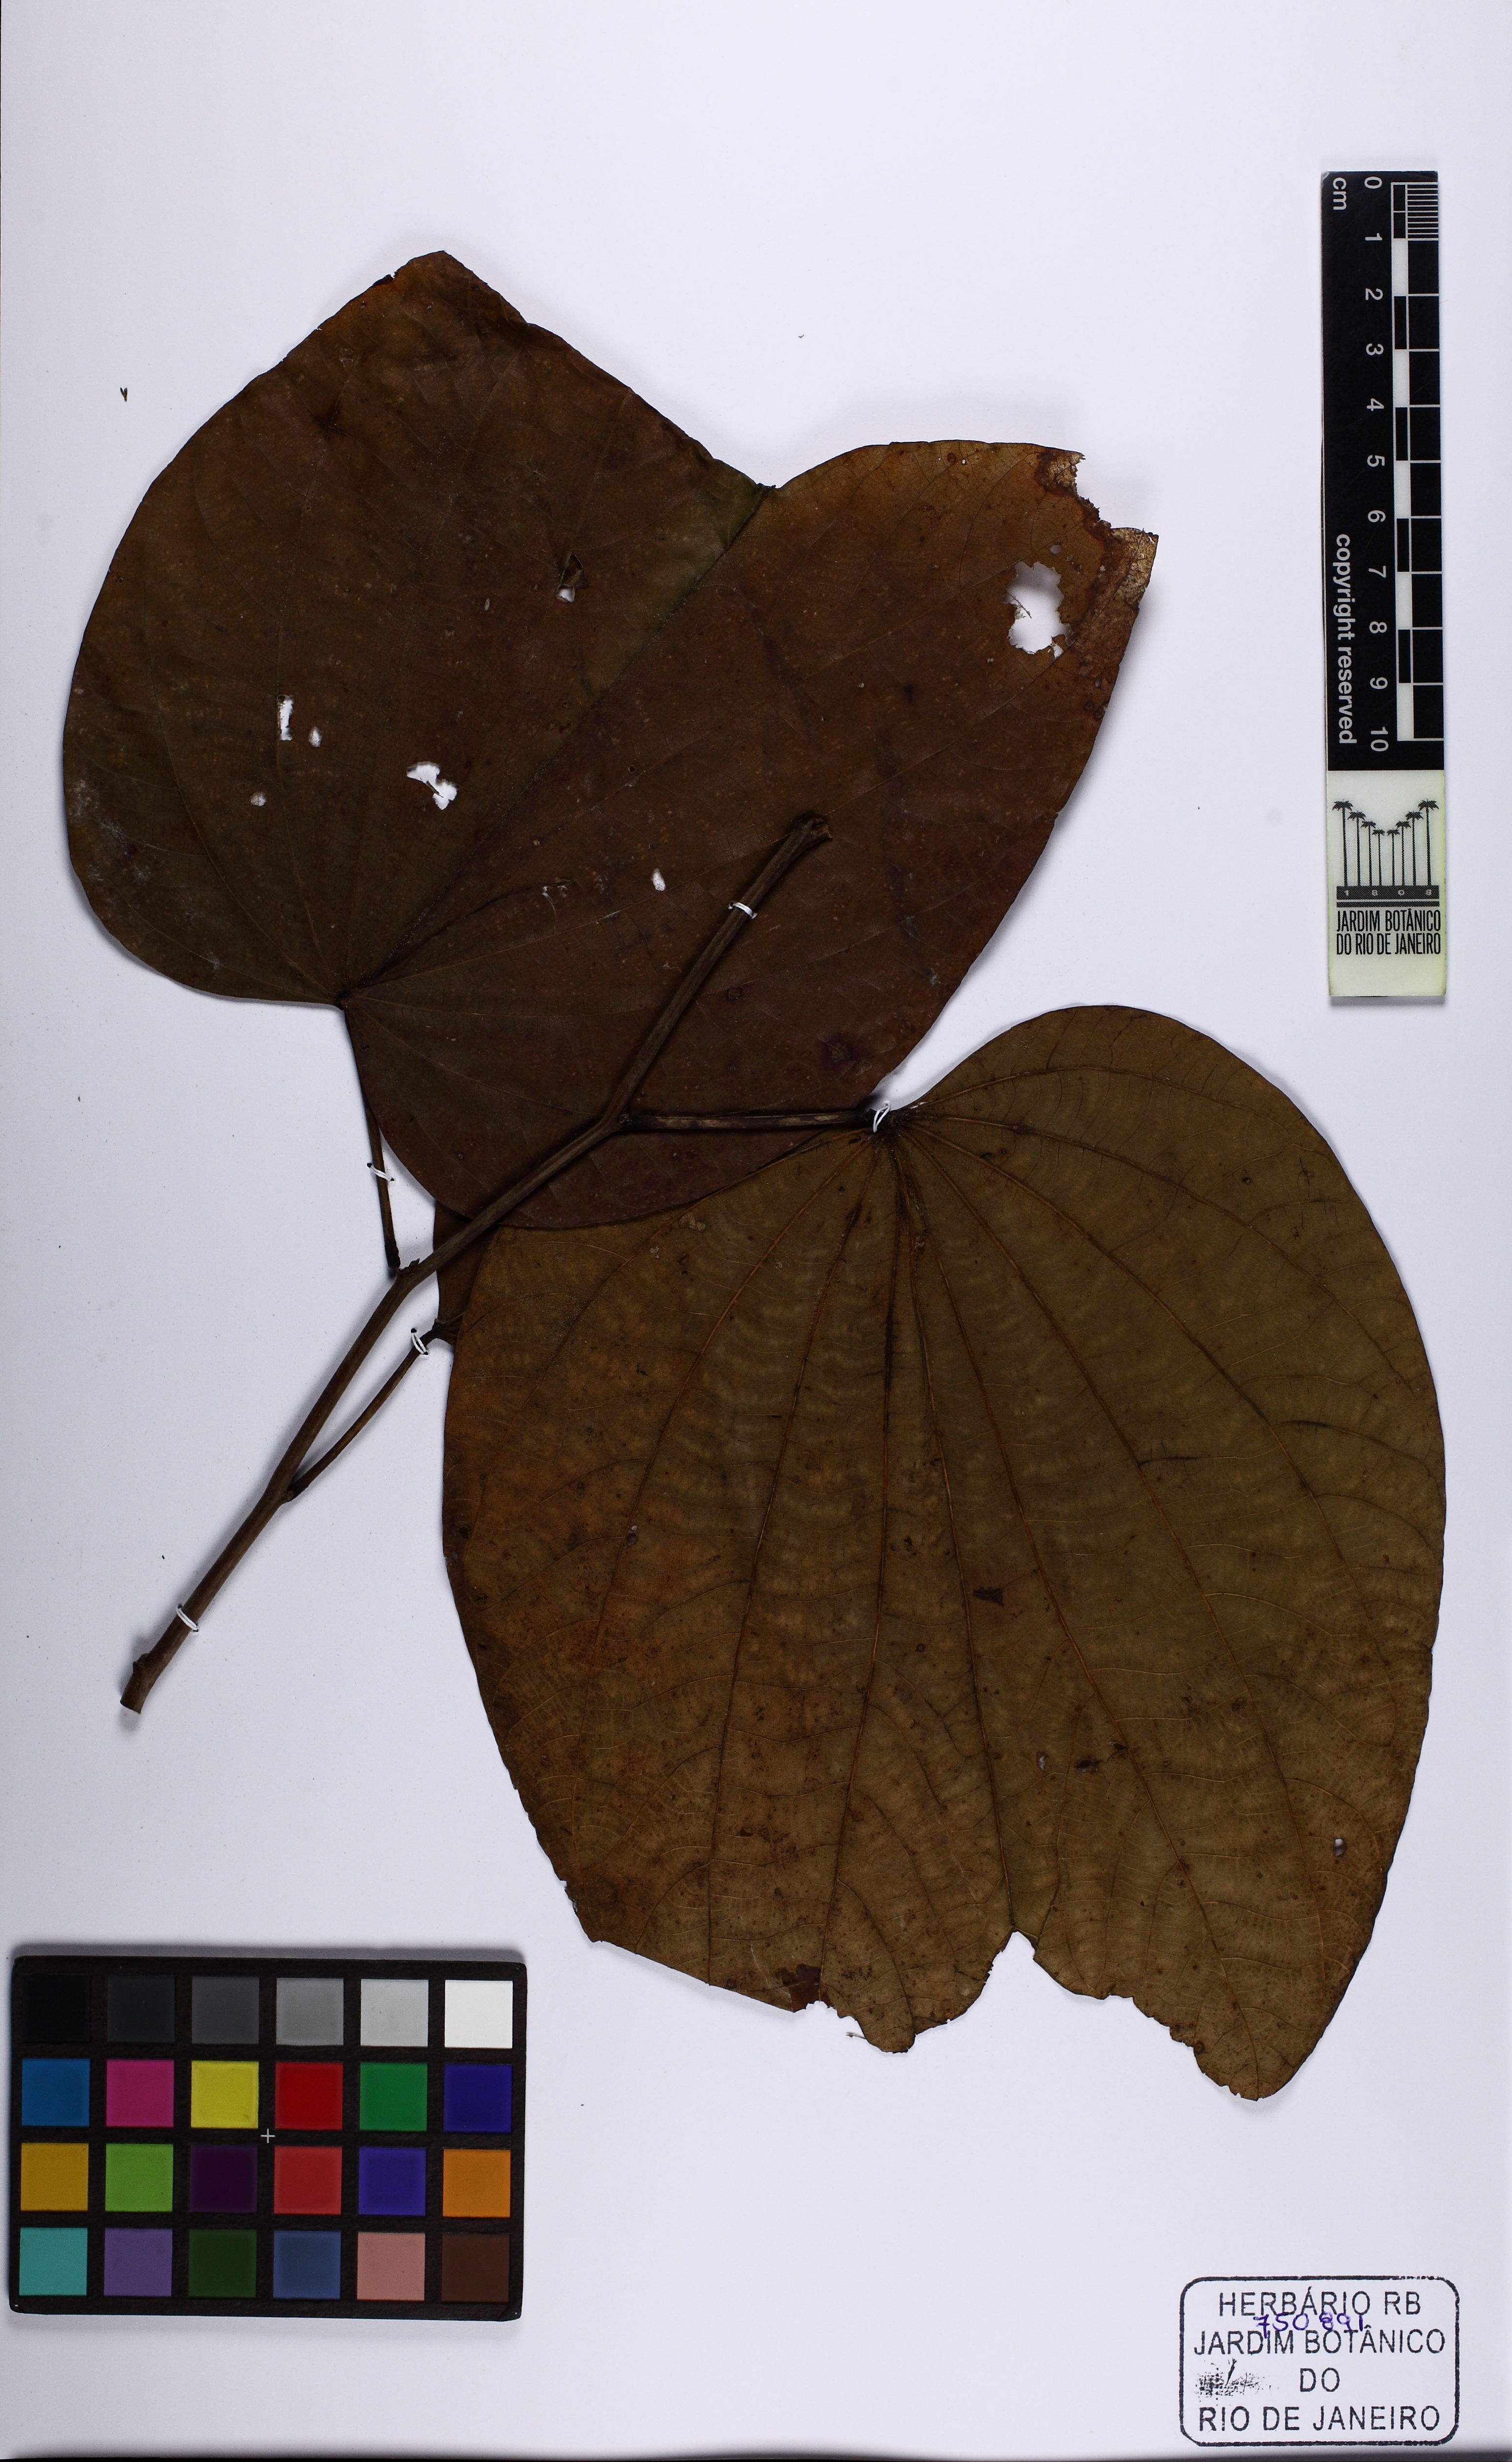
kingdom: Plantae
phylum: Tracheophyta
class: Magnoliopsida
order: Fabales
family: Fabaceae
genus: Bauhinia
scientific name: Bauhinia
